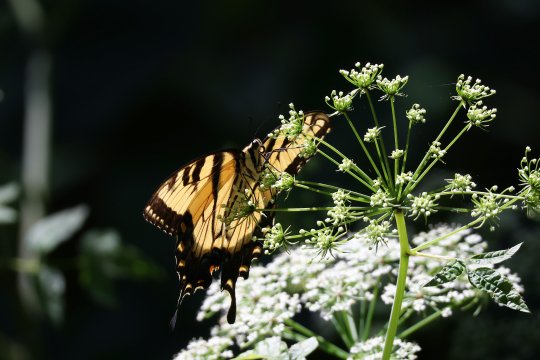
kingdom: Animalia
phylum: Arthropoda
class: Insecta
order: Lepidoptera
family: Papilionidae
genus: Pterourus
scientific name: Pterourus glaucus
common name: Eastern Tiger Swallowtail
